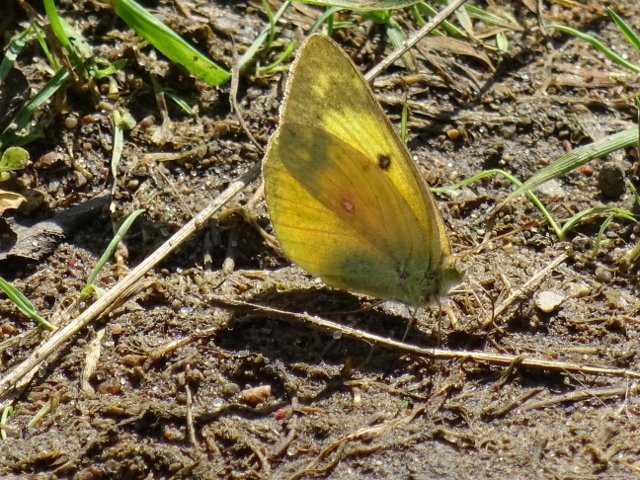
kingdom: Animalia
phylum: Arthropoda
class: Insecta
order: Lepidoptera
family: Pieridae
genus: Colias
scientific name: Colias eurytheme
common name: Orange Sulphur
